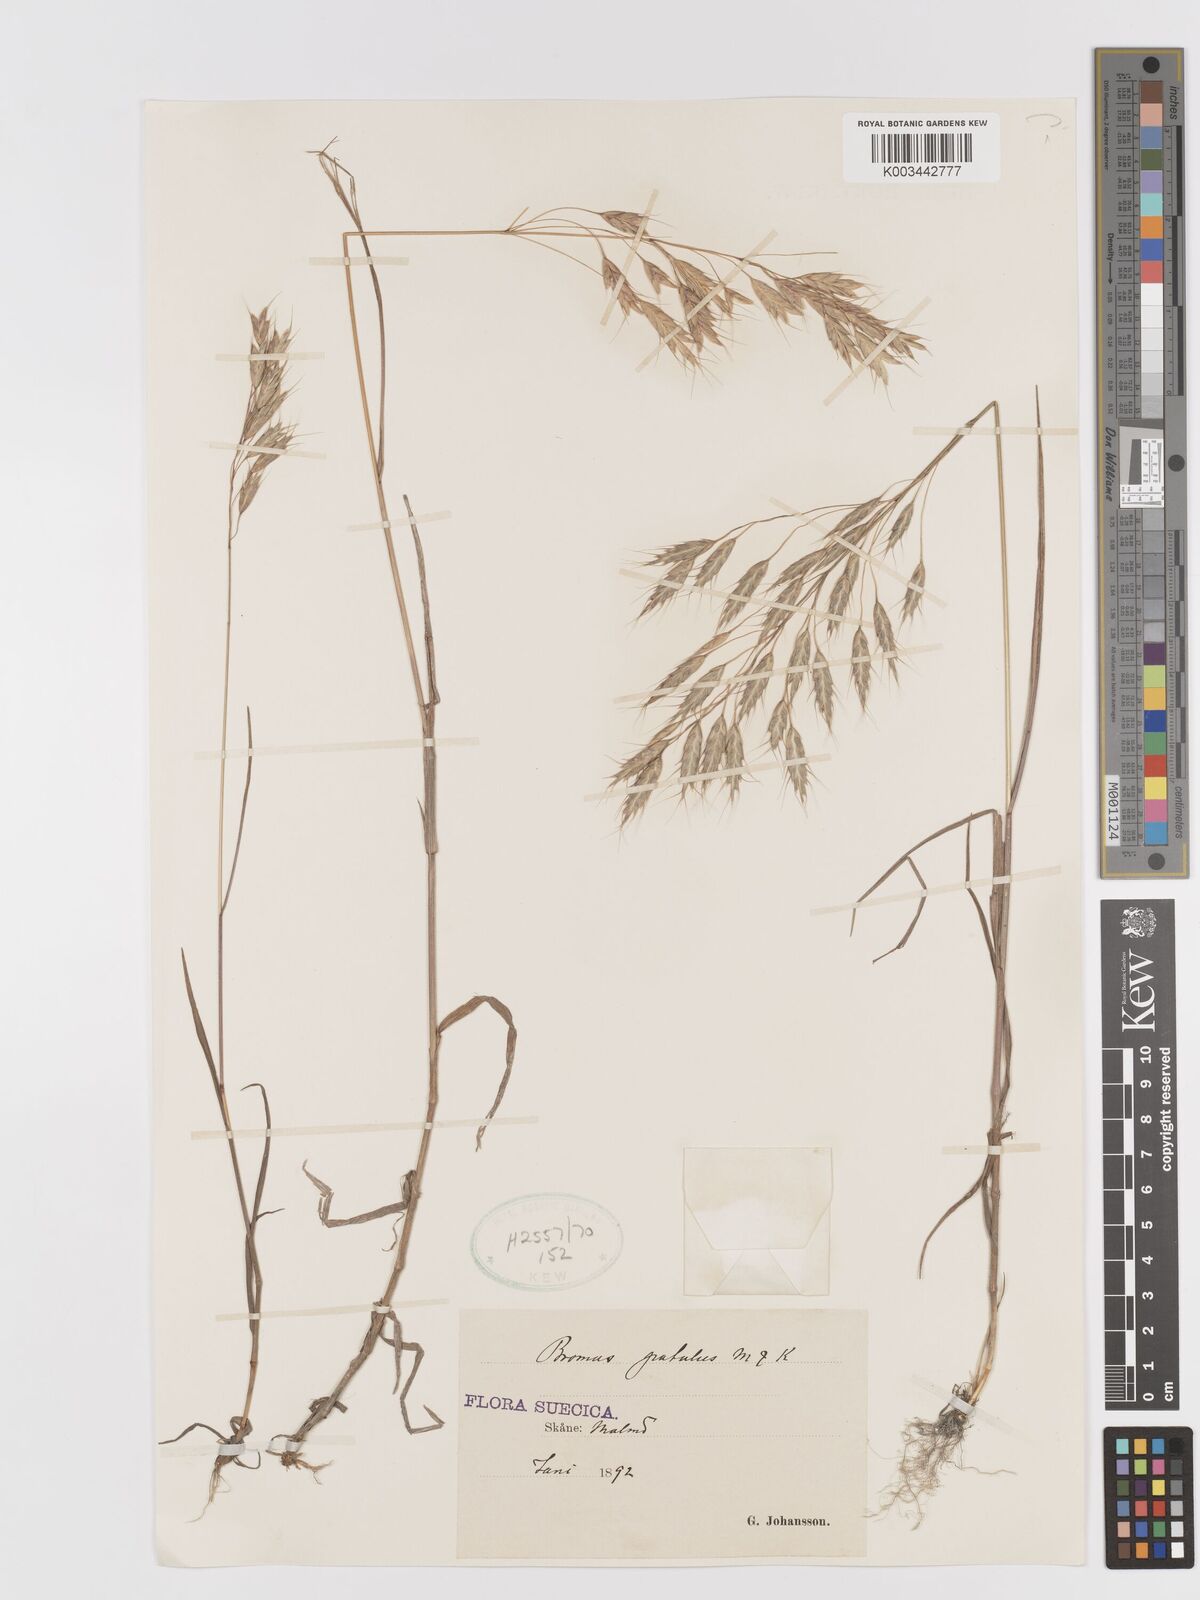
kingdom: Plantae
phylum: Tracheophyta
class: Liliopsida
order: Poales
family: Poaceae
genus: Bromus
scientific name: Bromus japonicus
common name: Japanese brome
